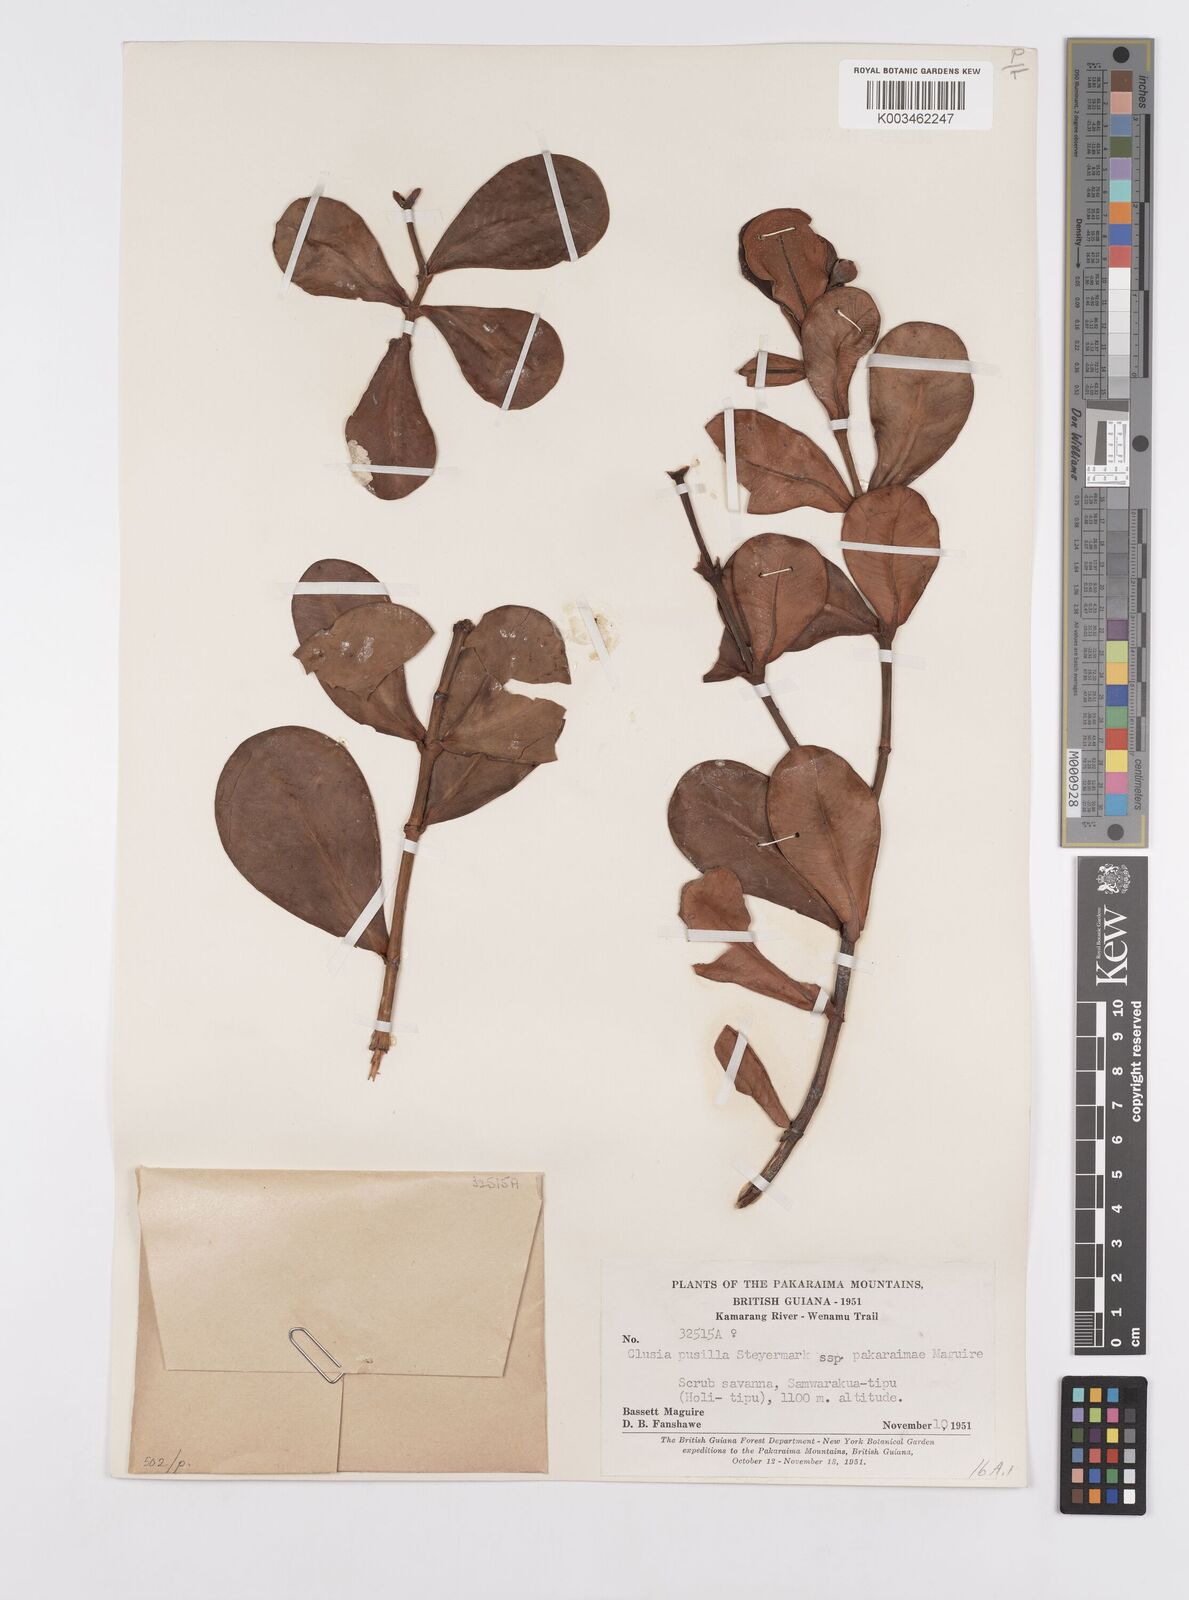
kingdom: Plantae
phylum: Tracheophyta
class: Magnoliopsida
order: Malpighiales
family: Clusiaceae
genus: Clusia
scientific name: Clusia pusilla
